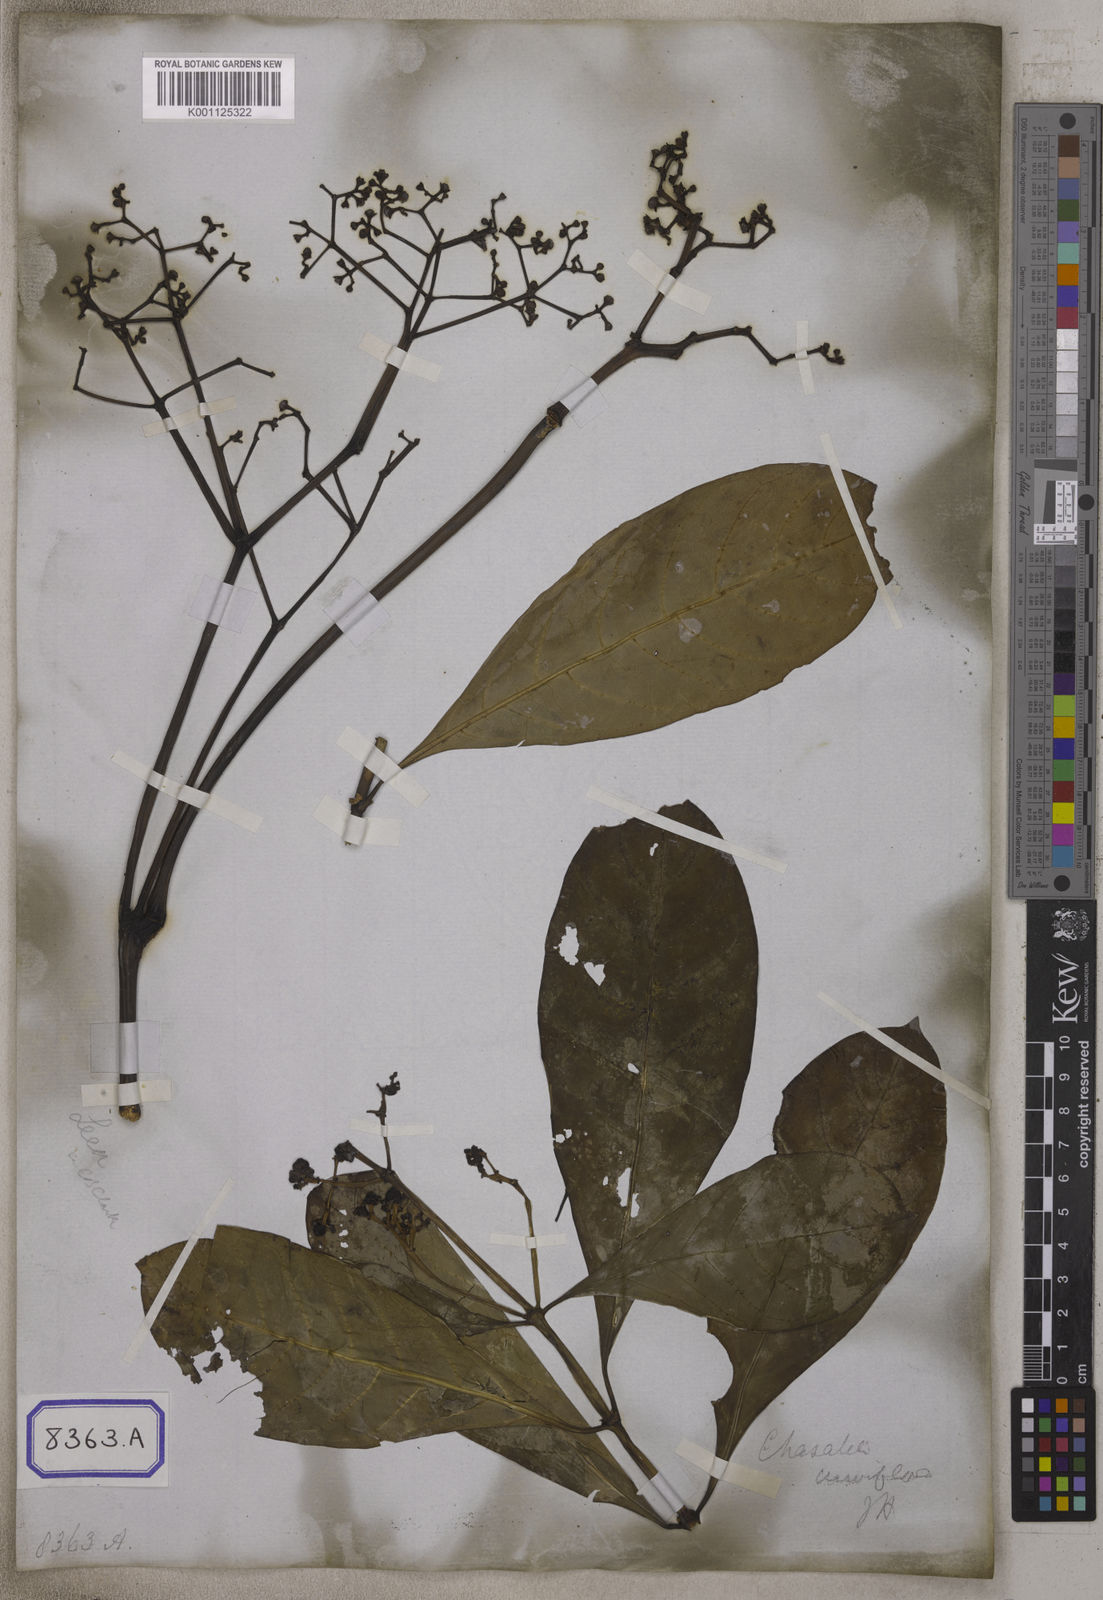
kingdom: Plantae
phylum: Tracheophyta
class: Magnoliopsida
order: Gentianales
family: Rubiaceae
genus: Psychotria
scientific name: Psychotria
